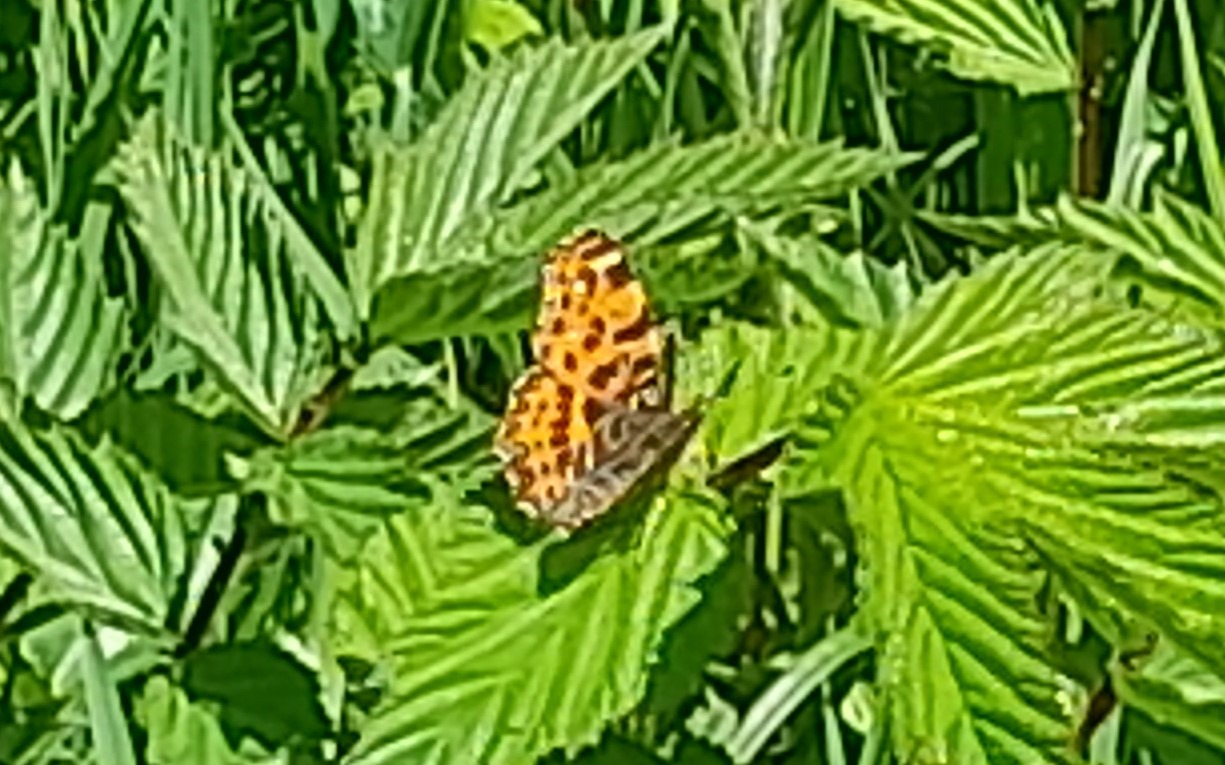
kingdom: Animalia
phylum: Arthropoda
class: Insecta
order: Lepidoptera
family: Nymphalidae
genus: Araschnia
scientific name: Araschnia levana
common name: Nældesommerfugl
